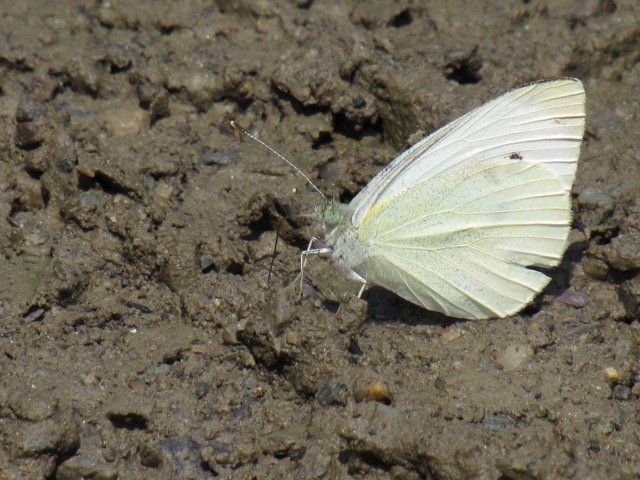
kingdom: Animalia
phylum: Arthropoda
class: Insecta
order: Lepidoptera
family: Pieridae
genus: Pieris
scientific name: Pieris rapae
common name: Cabbage White
